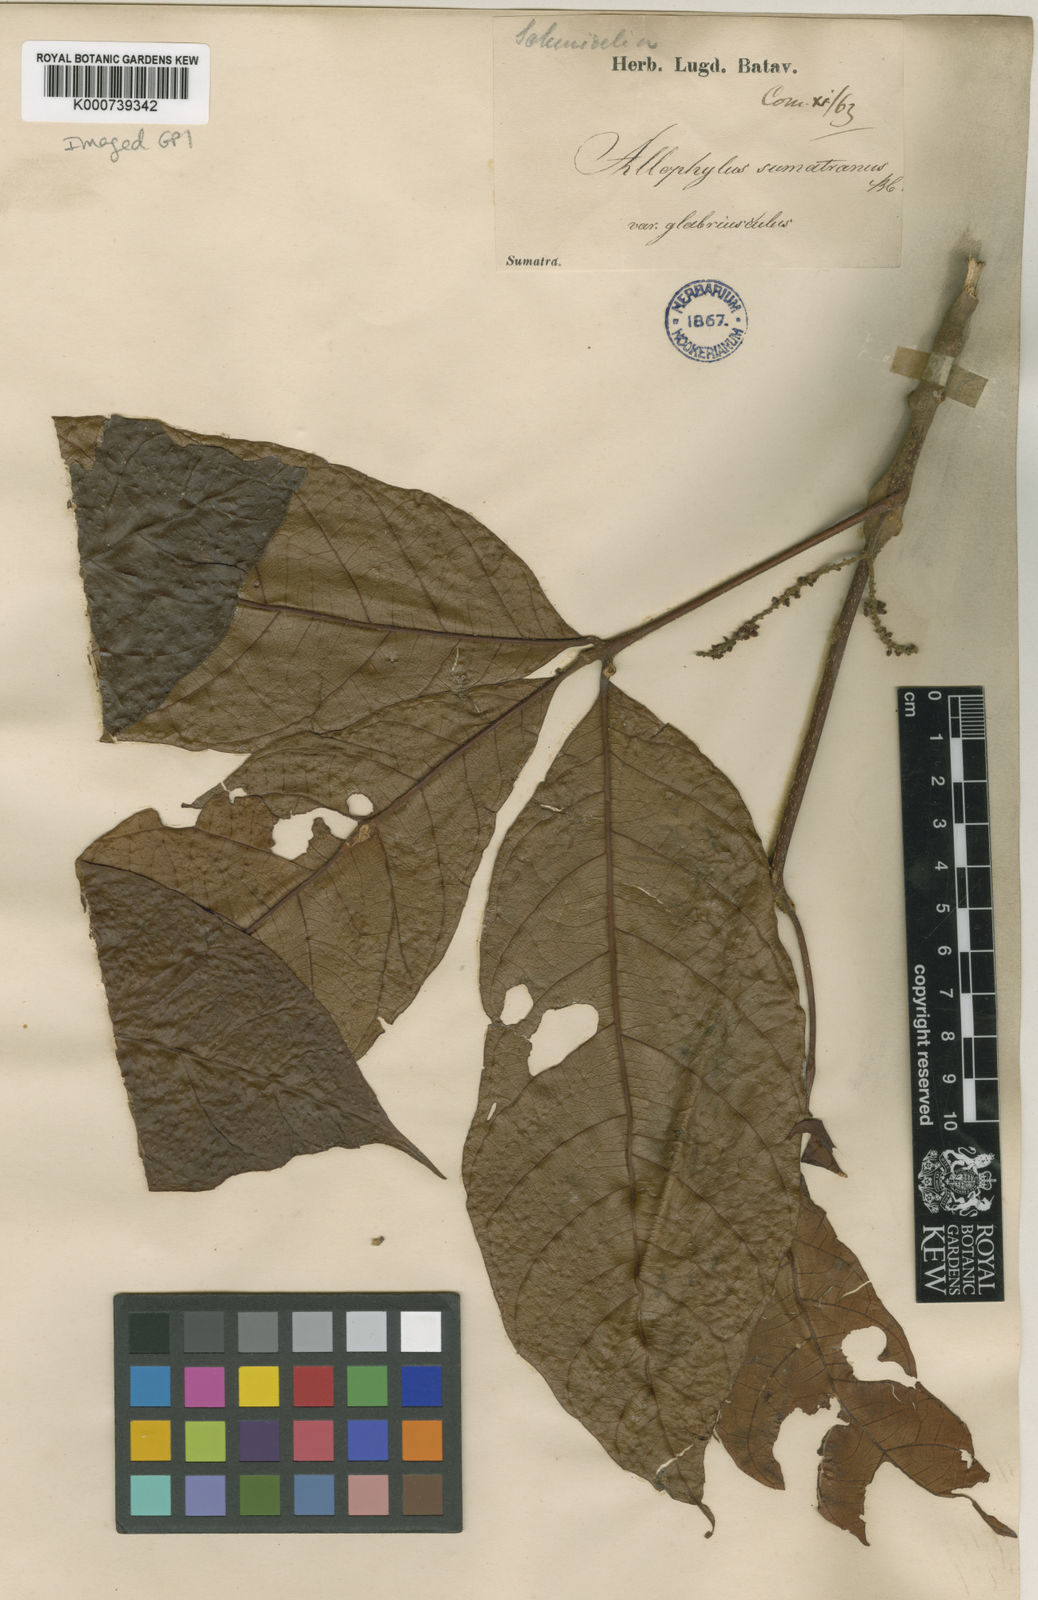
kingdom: Plantae
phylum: Tracheophyta
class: Magnoliopsida
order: Sapindales
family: Sapindaceae
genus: Allophylus
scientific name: Allophylus sumatranus
